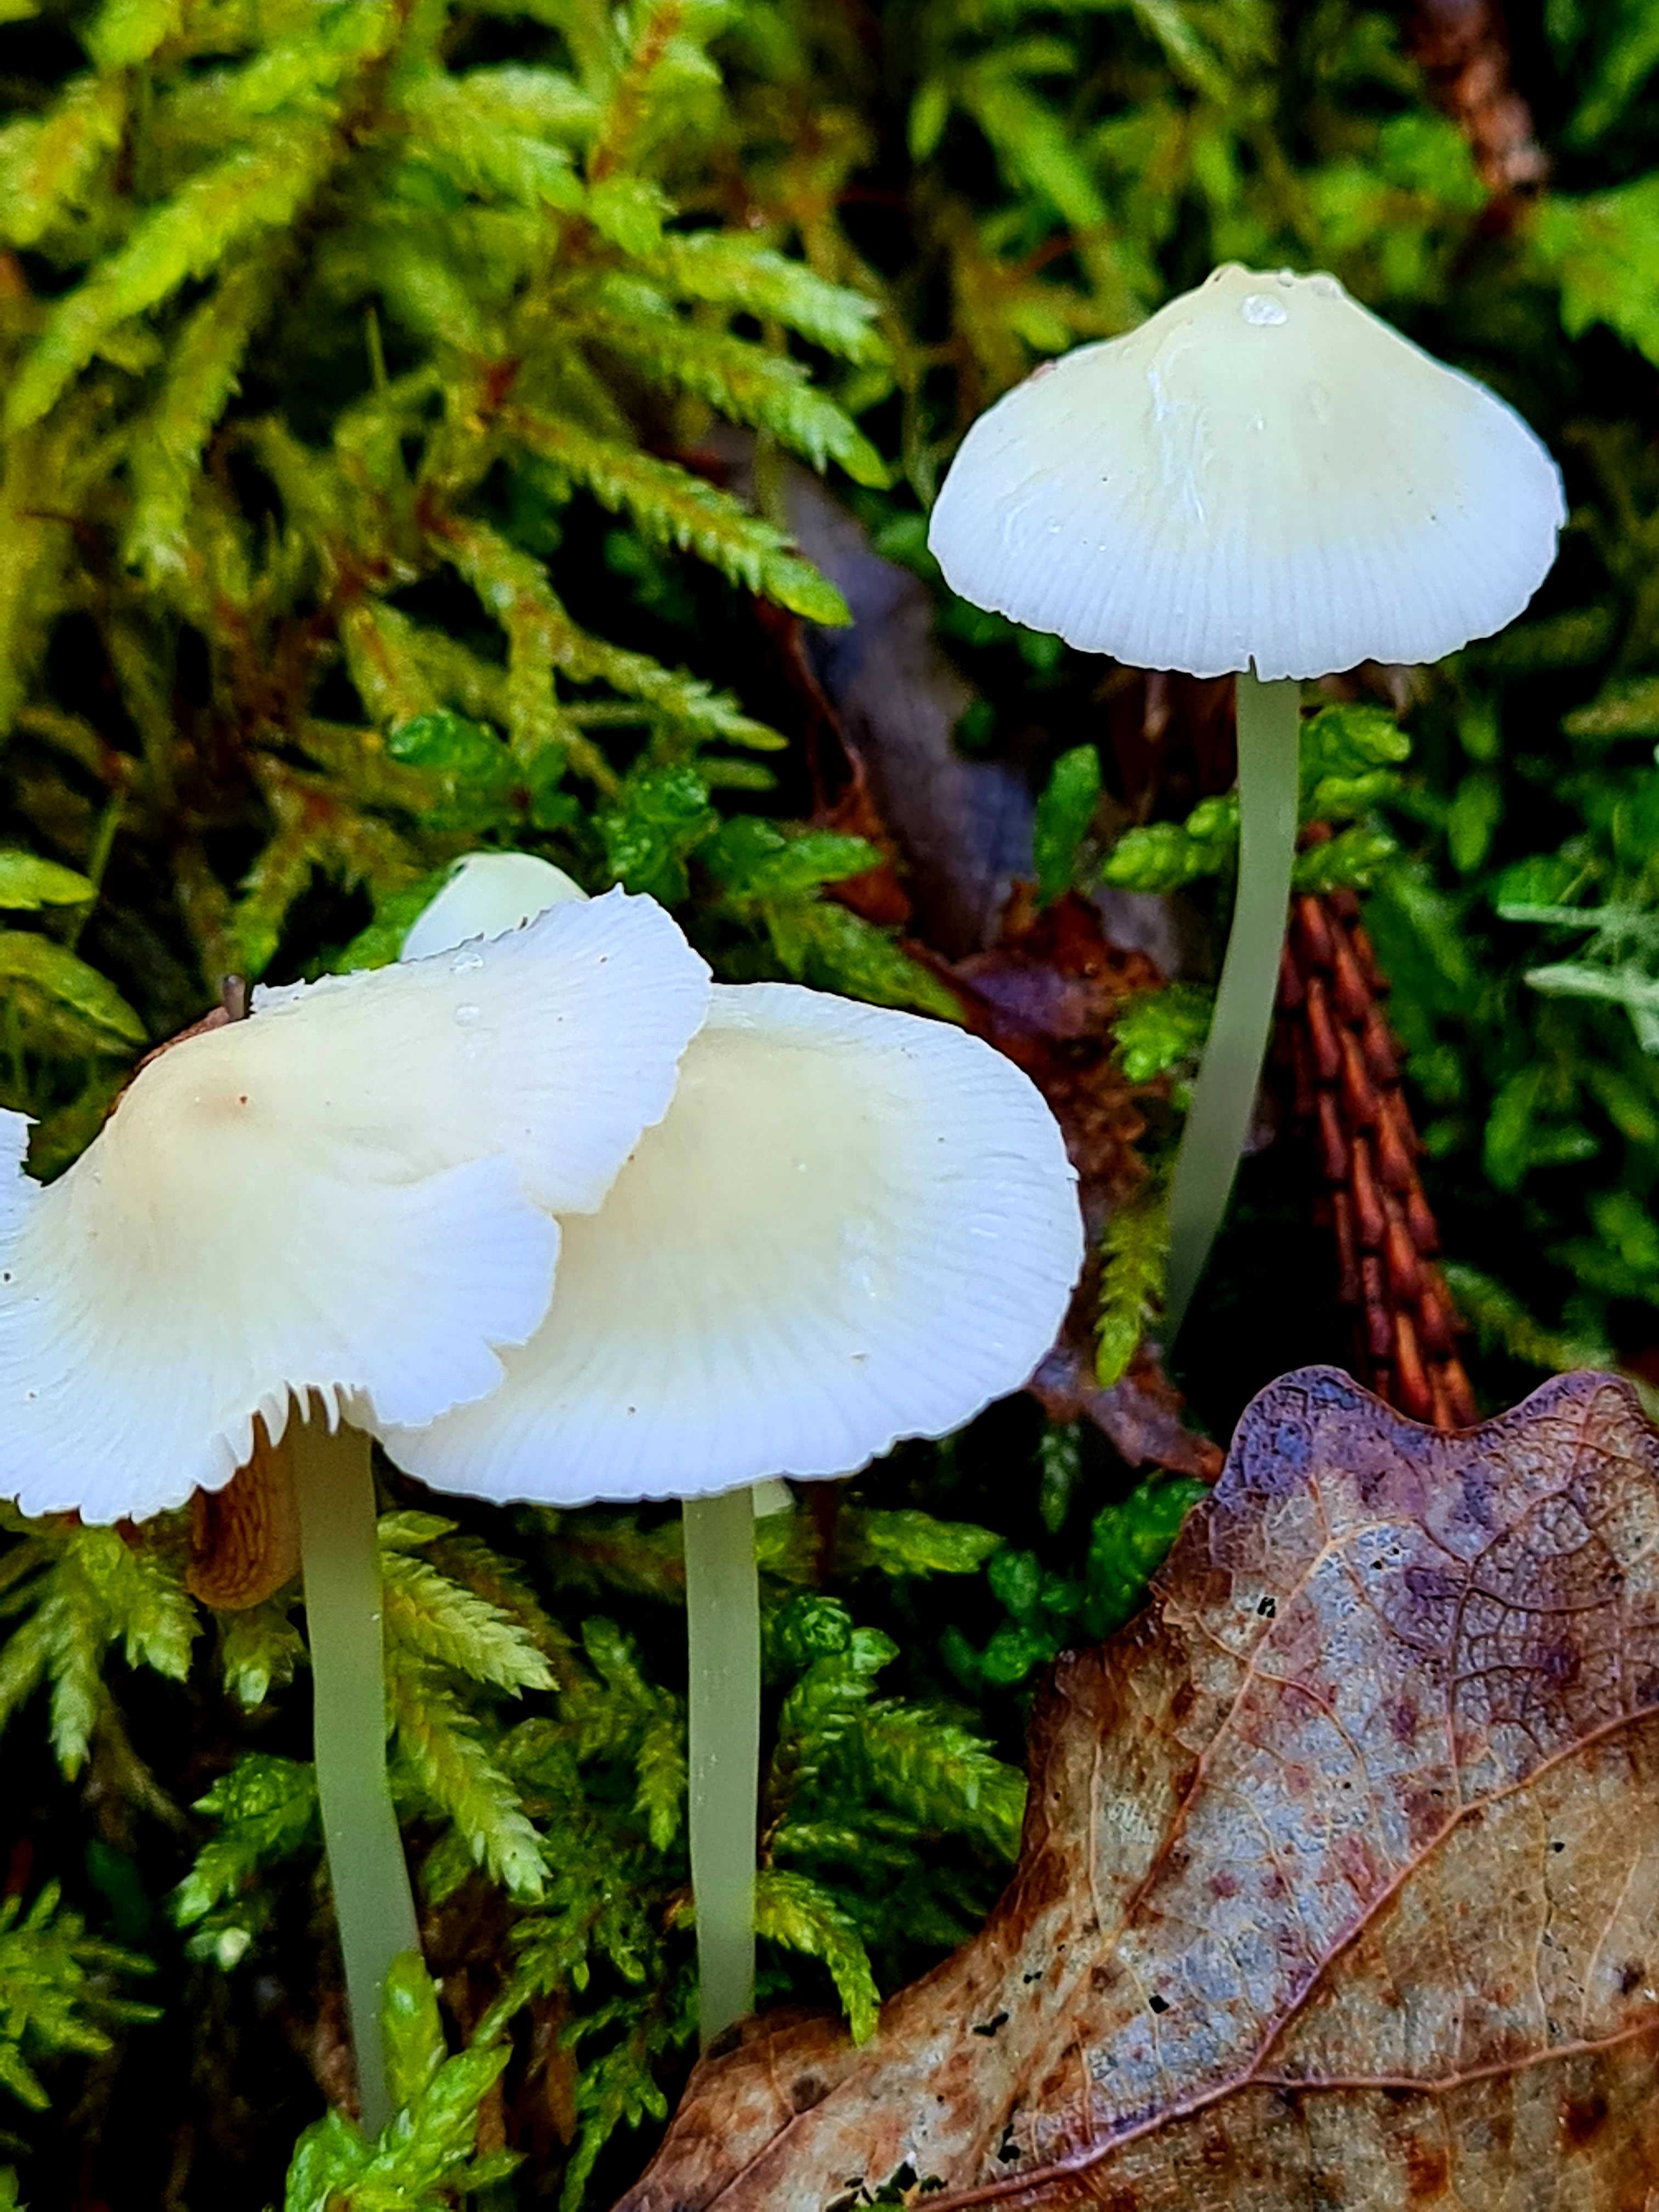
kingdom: Fungi
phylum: Basidiomycota
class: Agaricomycetes
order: Agaricales
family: Mycenaceae
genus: Mycena
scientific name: Mycena
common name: huesvamp
